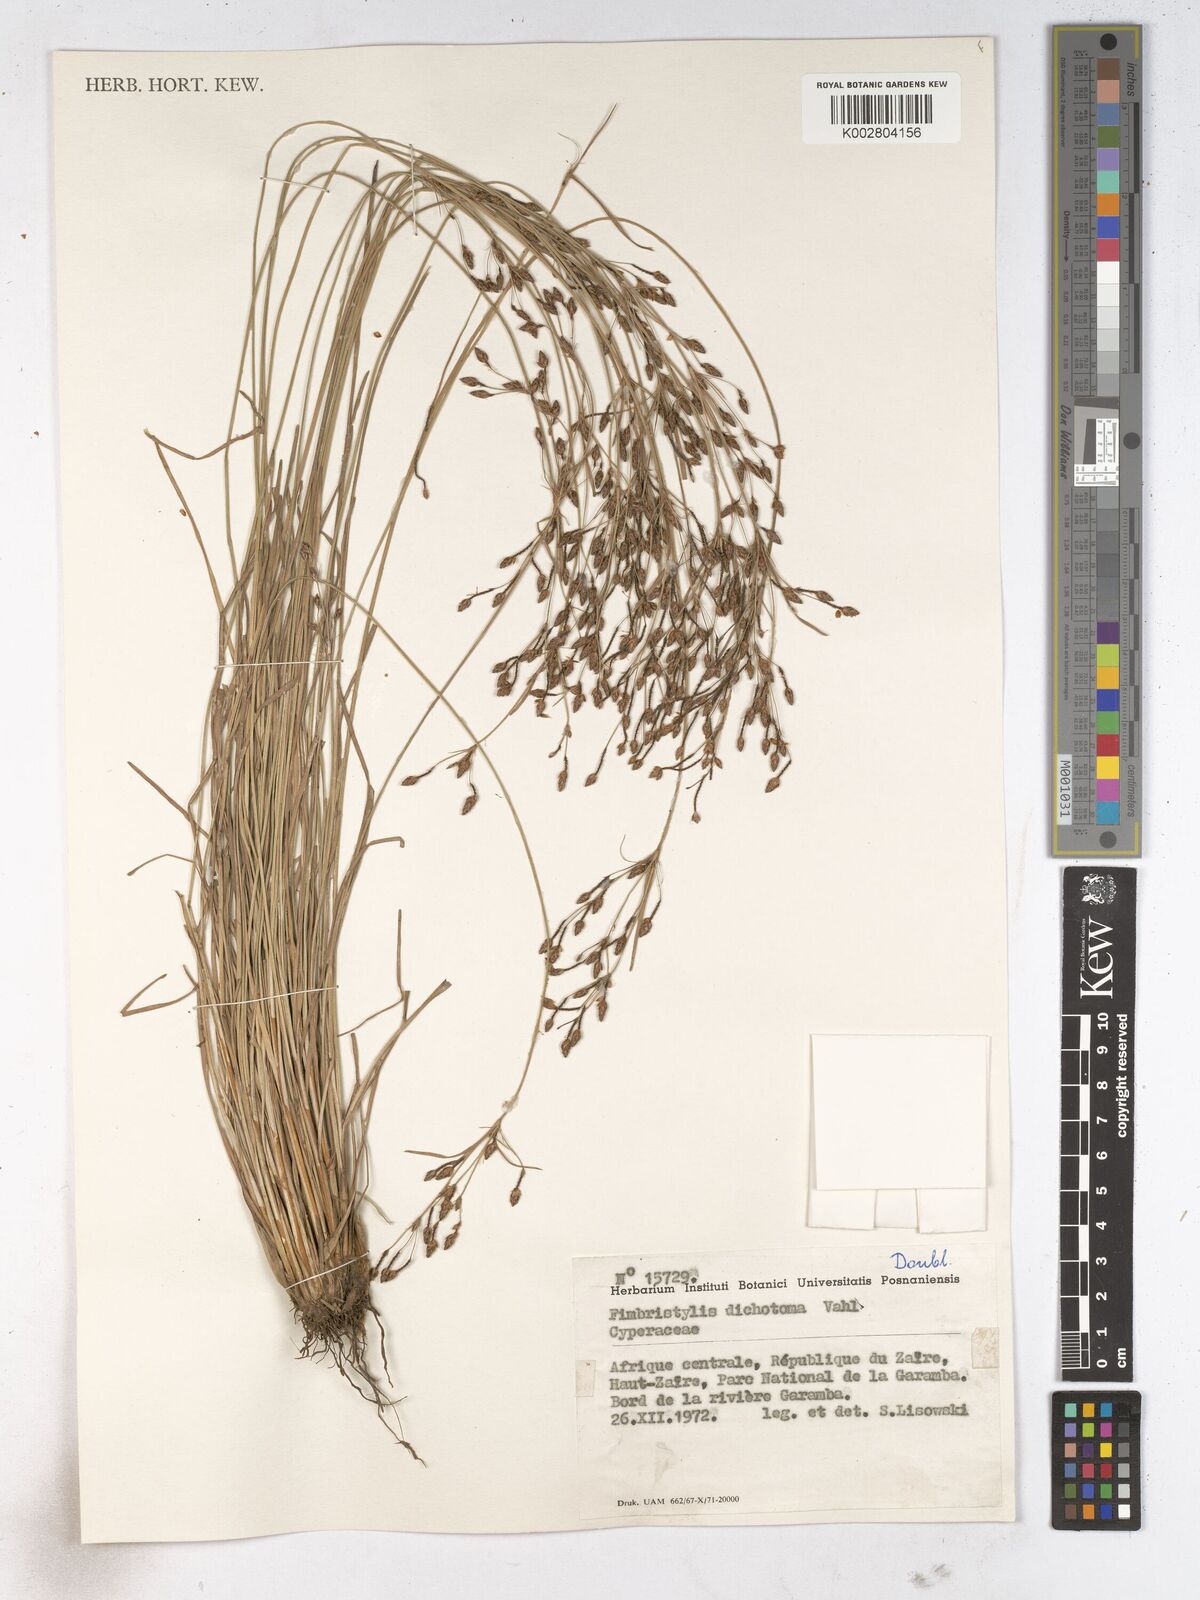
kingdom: Plantae
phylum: Tracheophyta
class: Liliopsida
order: Poales
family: Cyperaceae
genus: Fimbristylis
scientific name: Fimbristylis dichotoma
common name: Forked fimbry
